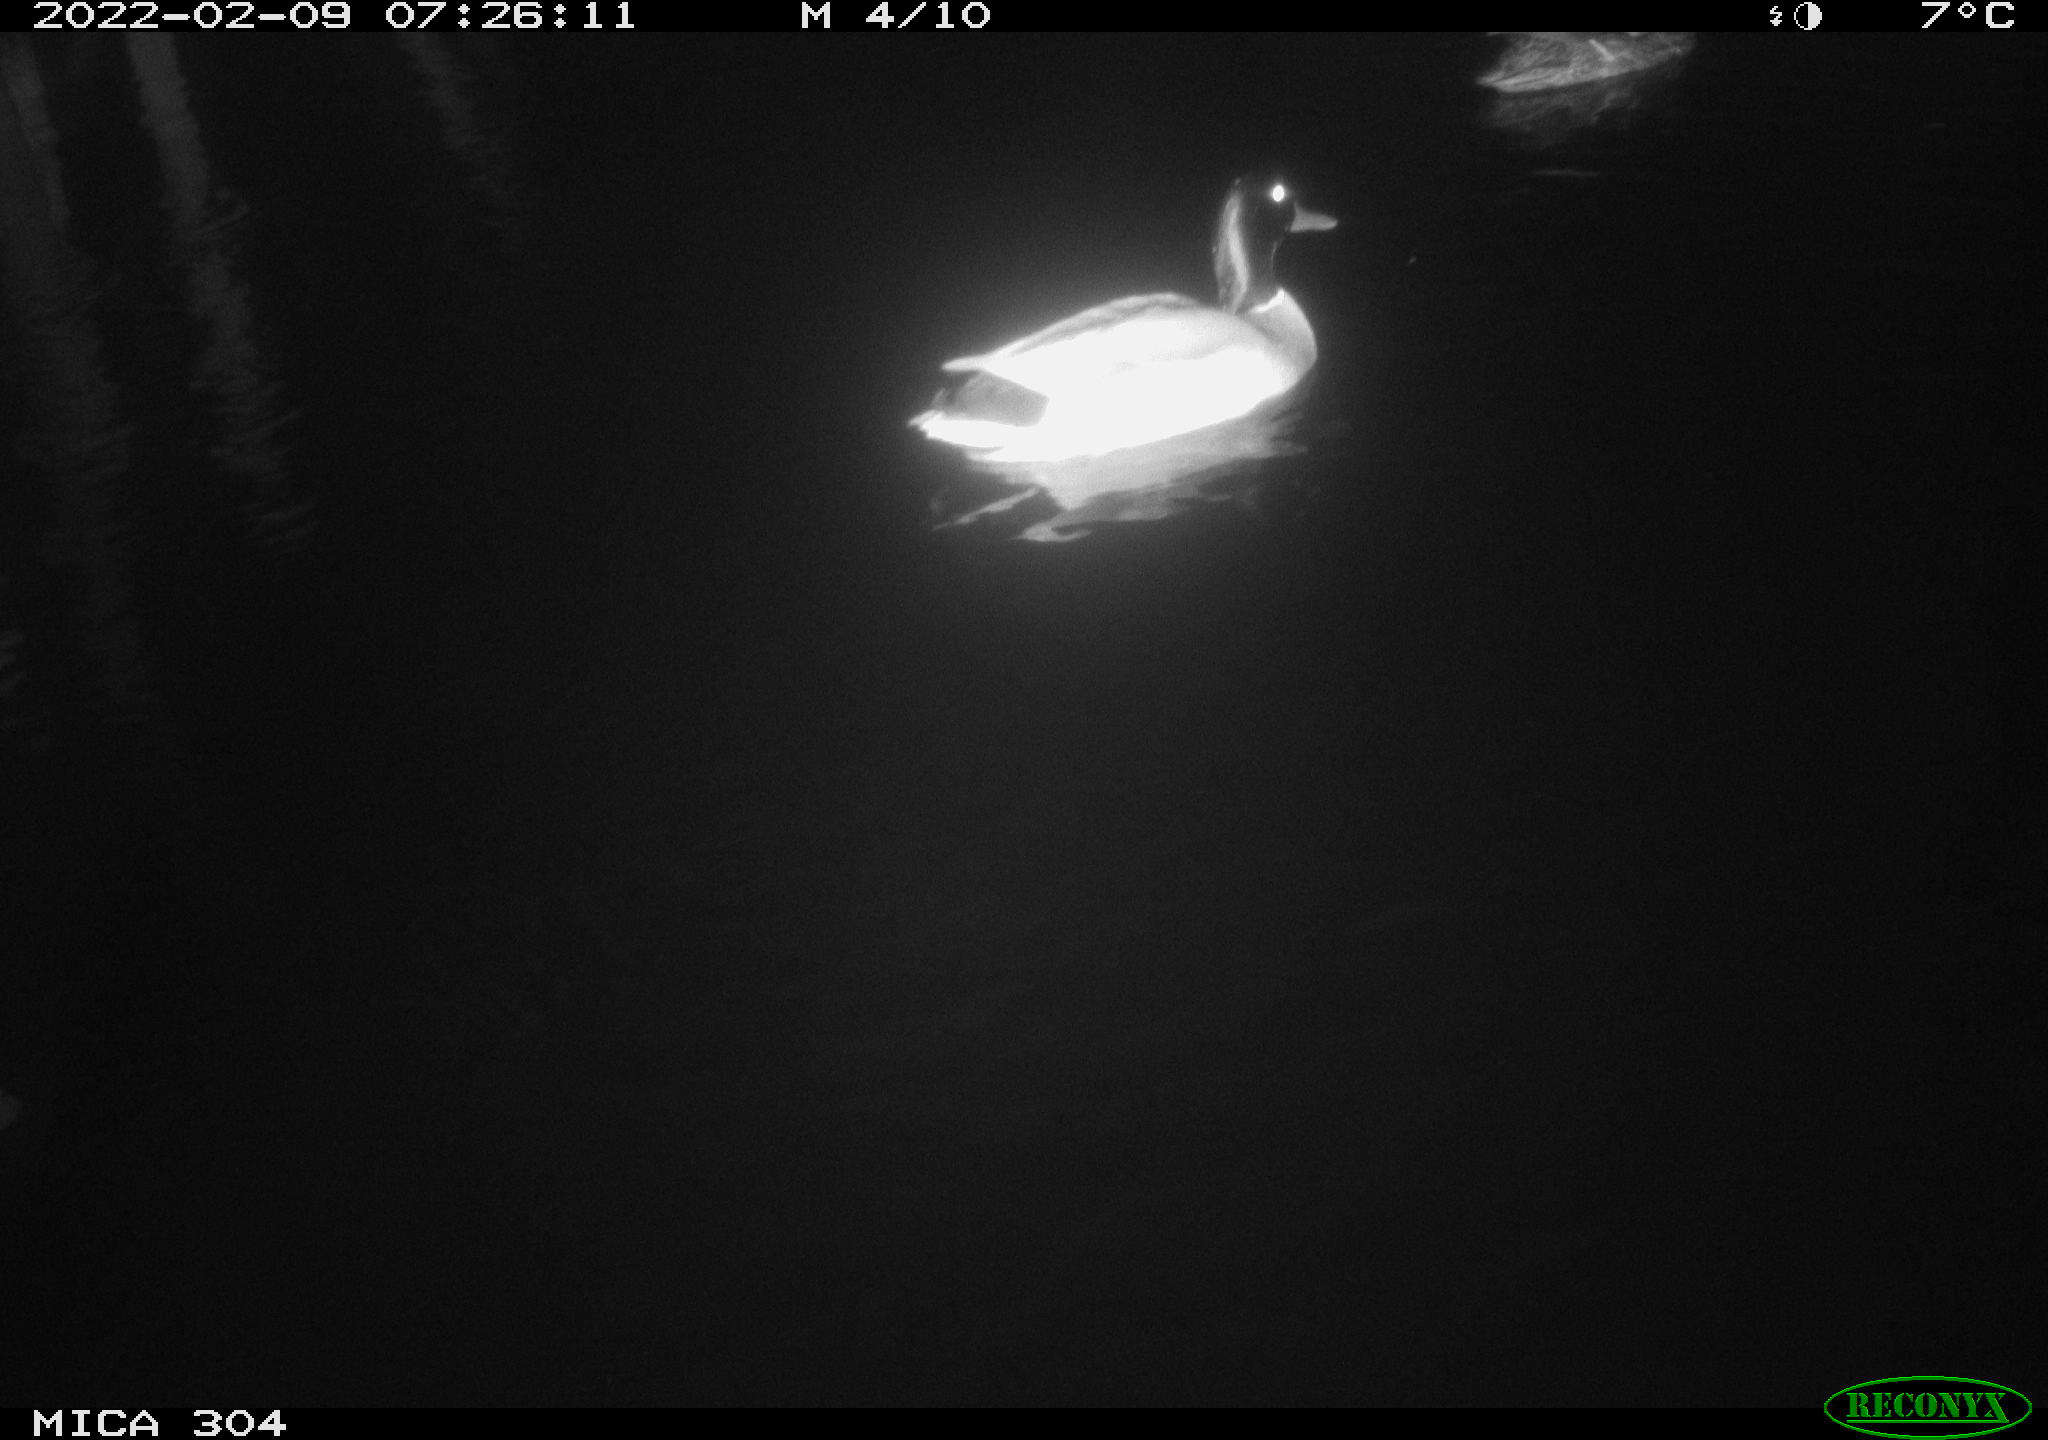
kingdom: Animalia
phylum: Chordata
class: Aves
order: Anseriformes
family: Anatidae
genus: Anas
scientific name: Anas platyrhynchos
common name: Mallard
